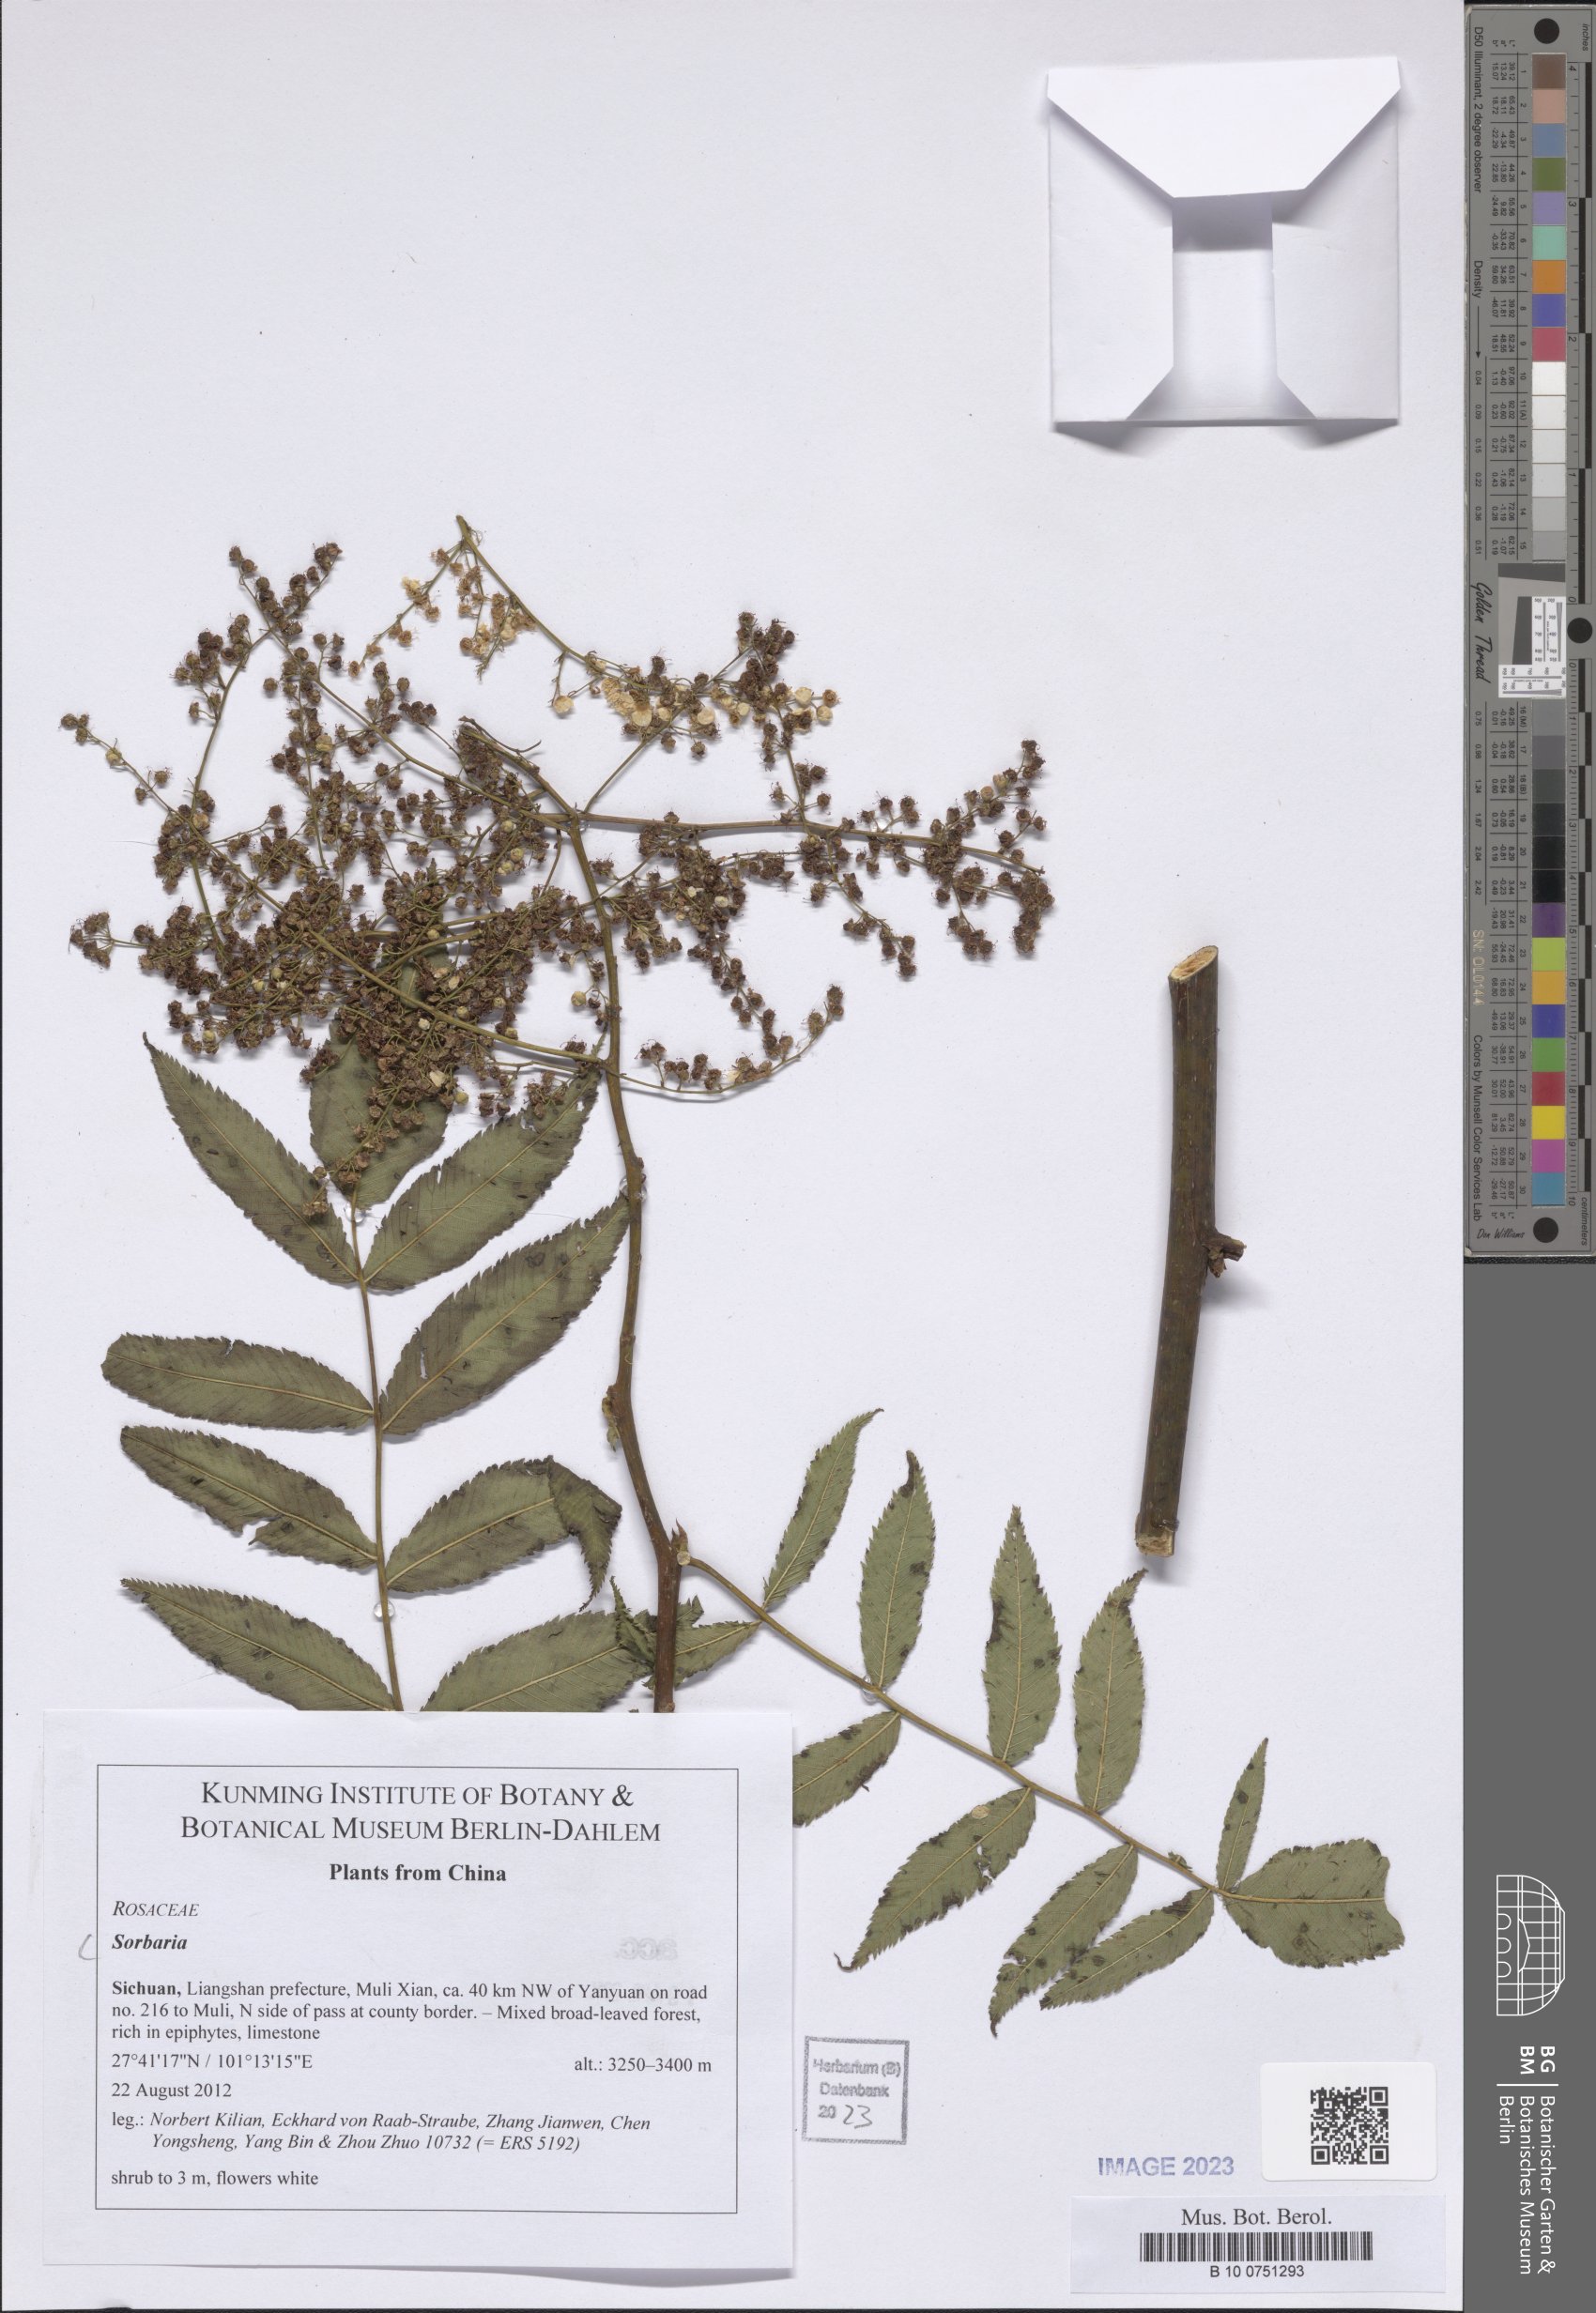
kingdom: Plantae
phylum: Tracheophyta
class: Magnoliopsida
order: Rosales
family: Rosaceae
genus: Sorbaria
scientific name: Sorbaria
